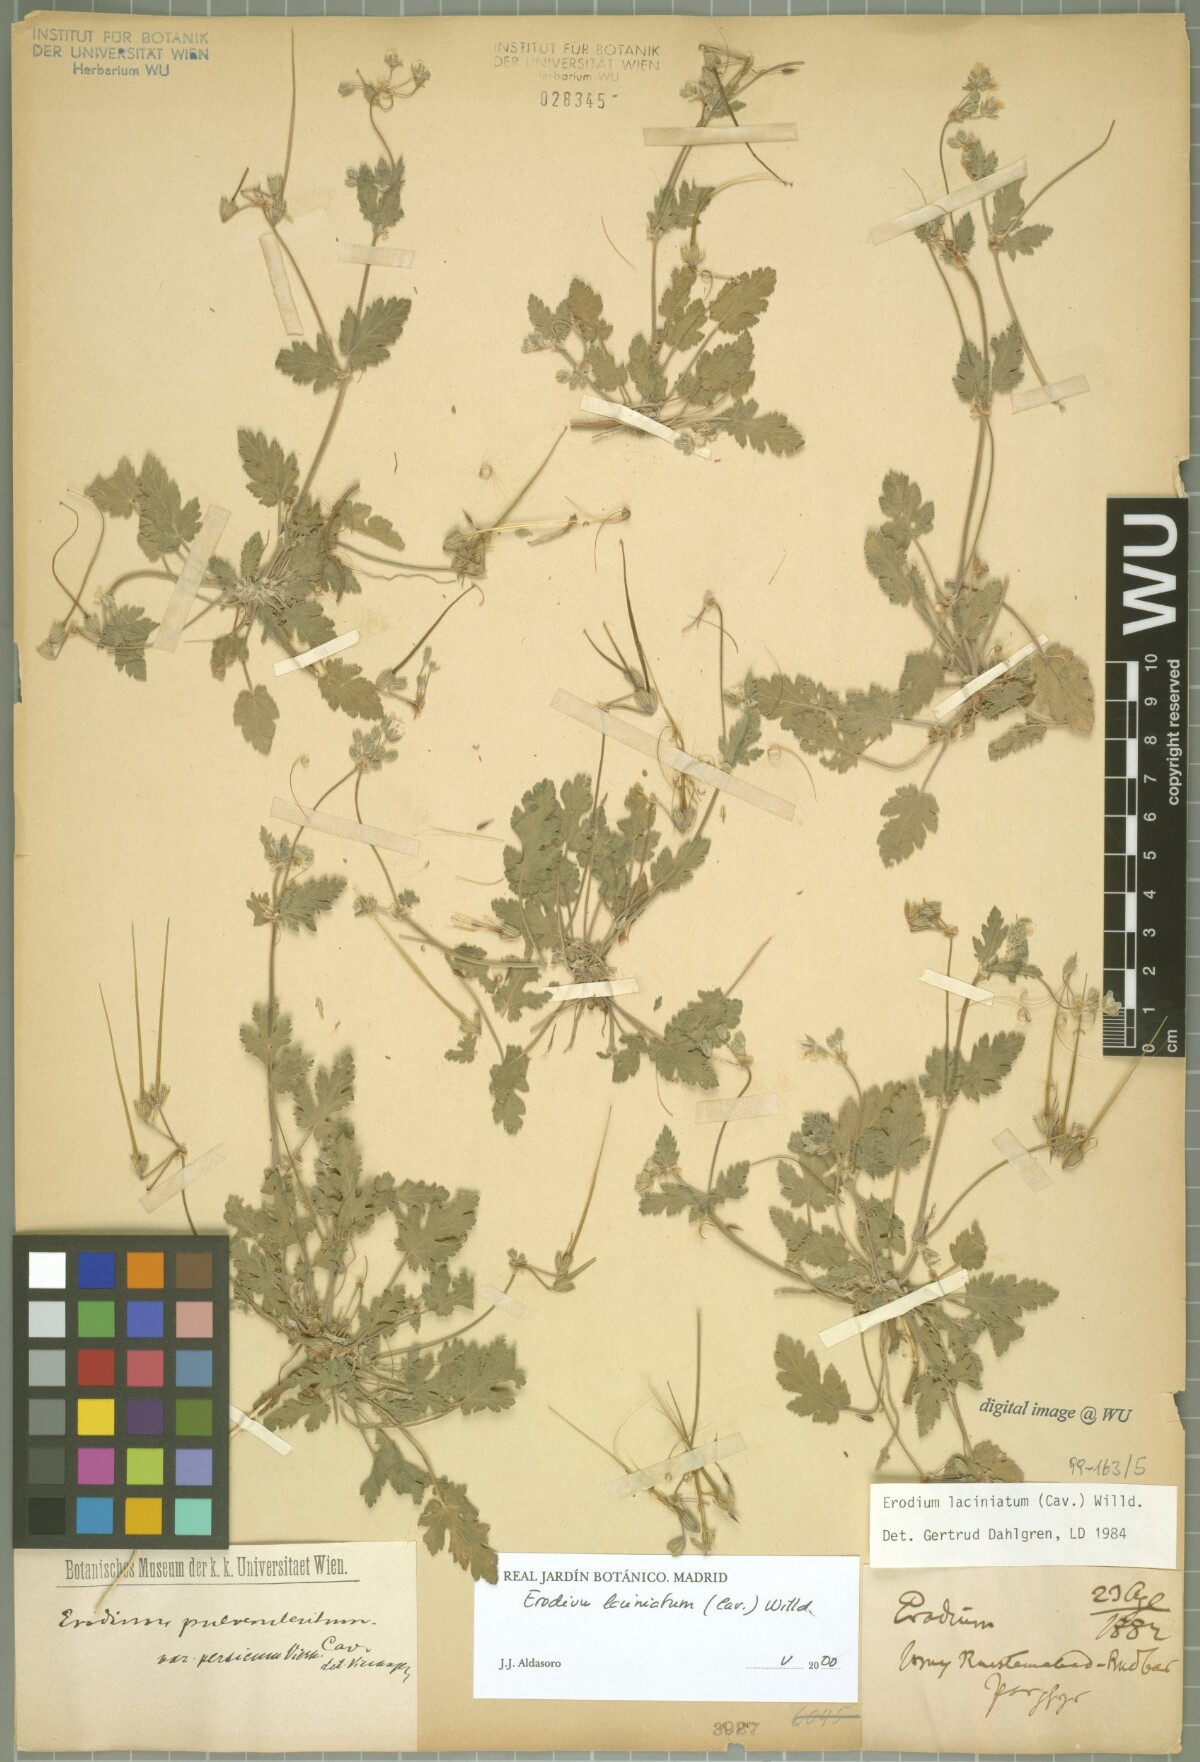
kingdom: Plantae
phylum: Tracheophyta
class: Magnoliopsida
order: Geraniales
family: Geraniaceae
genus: Erodium
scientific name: Erodium laciniatum
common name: Cutleaf stork's bill
